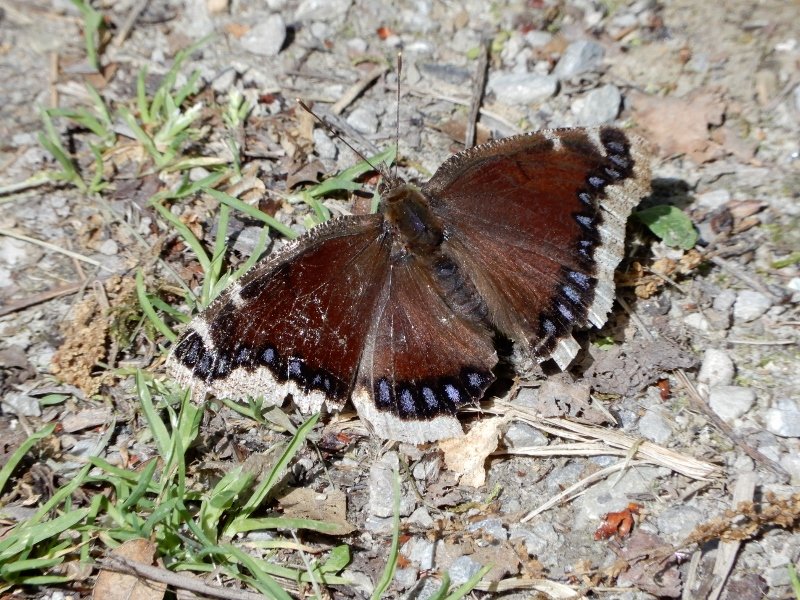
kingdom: Animalia
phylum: Arthropoda
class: Insecta
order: Lepidoptera
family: Nymphalidae
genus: Nymphalis
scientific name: Nymphalis antiopa
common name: Mourning Cloak
